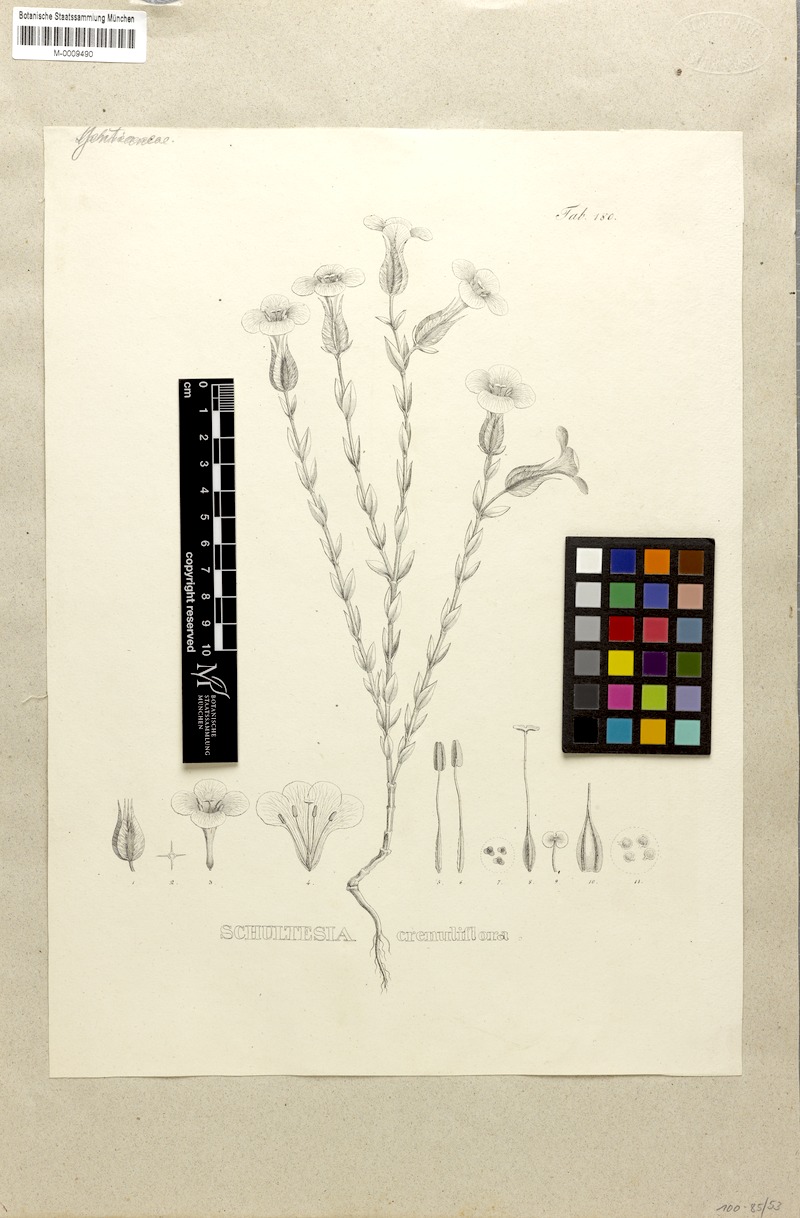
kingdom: Plantae
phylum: Tracheophyta
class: Magnoliopsida
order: Gentianales
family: Gentianaceae
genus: Schultesia
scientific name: Schultesia crenuliflora
